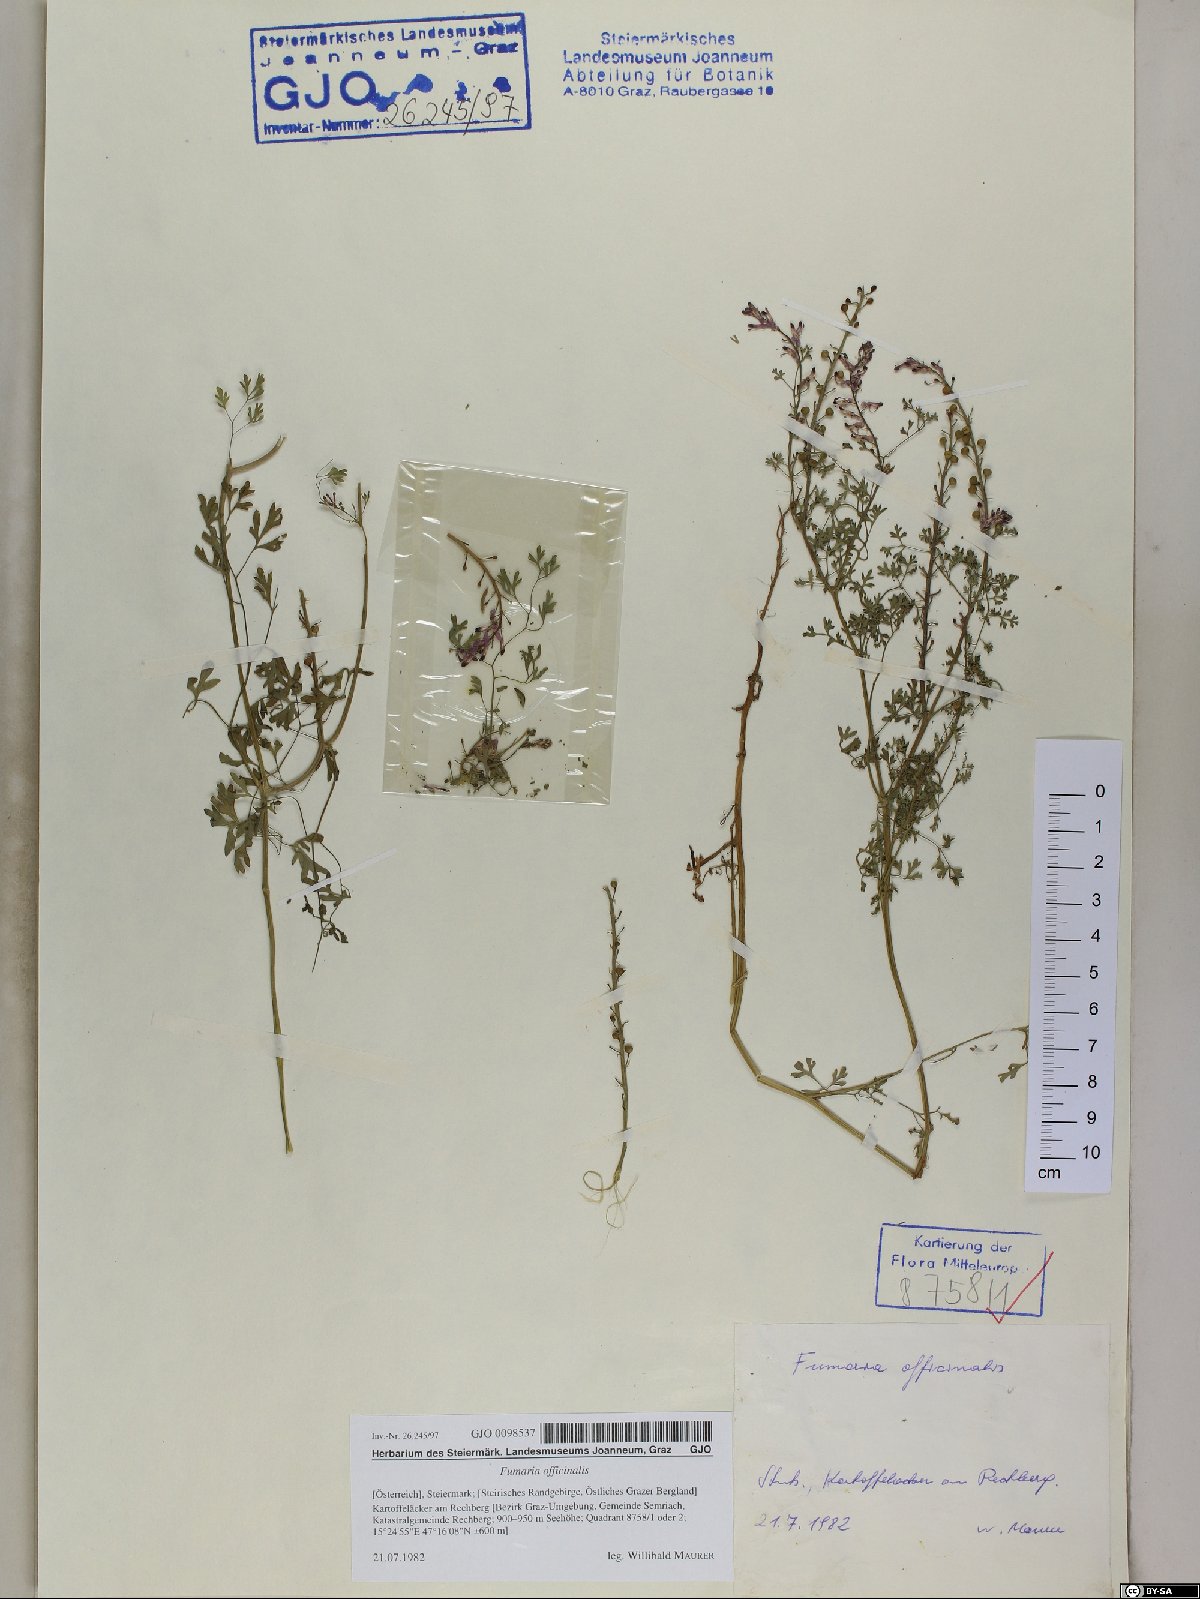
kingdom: Plantae
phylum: Tracheophyta
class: Magnoliopsida
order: Ranunculales
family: Papaveraceae
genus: Fumaria
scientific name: Fumaria officinalis
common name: Common fumitory
